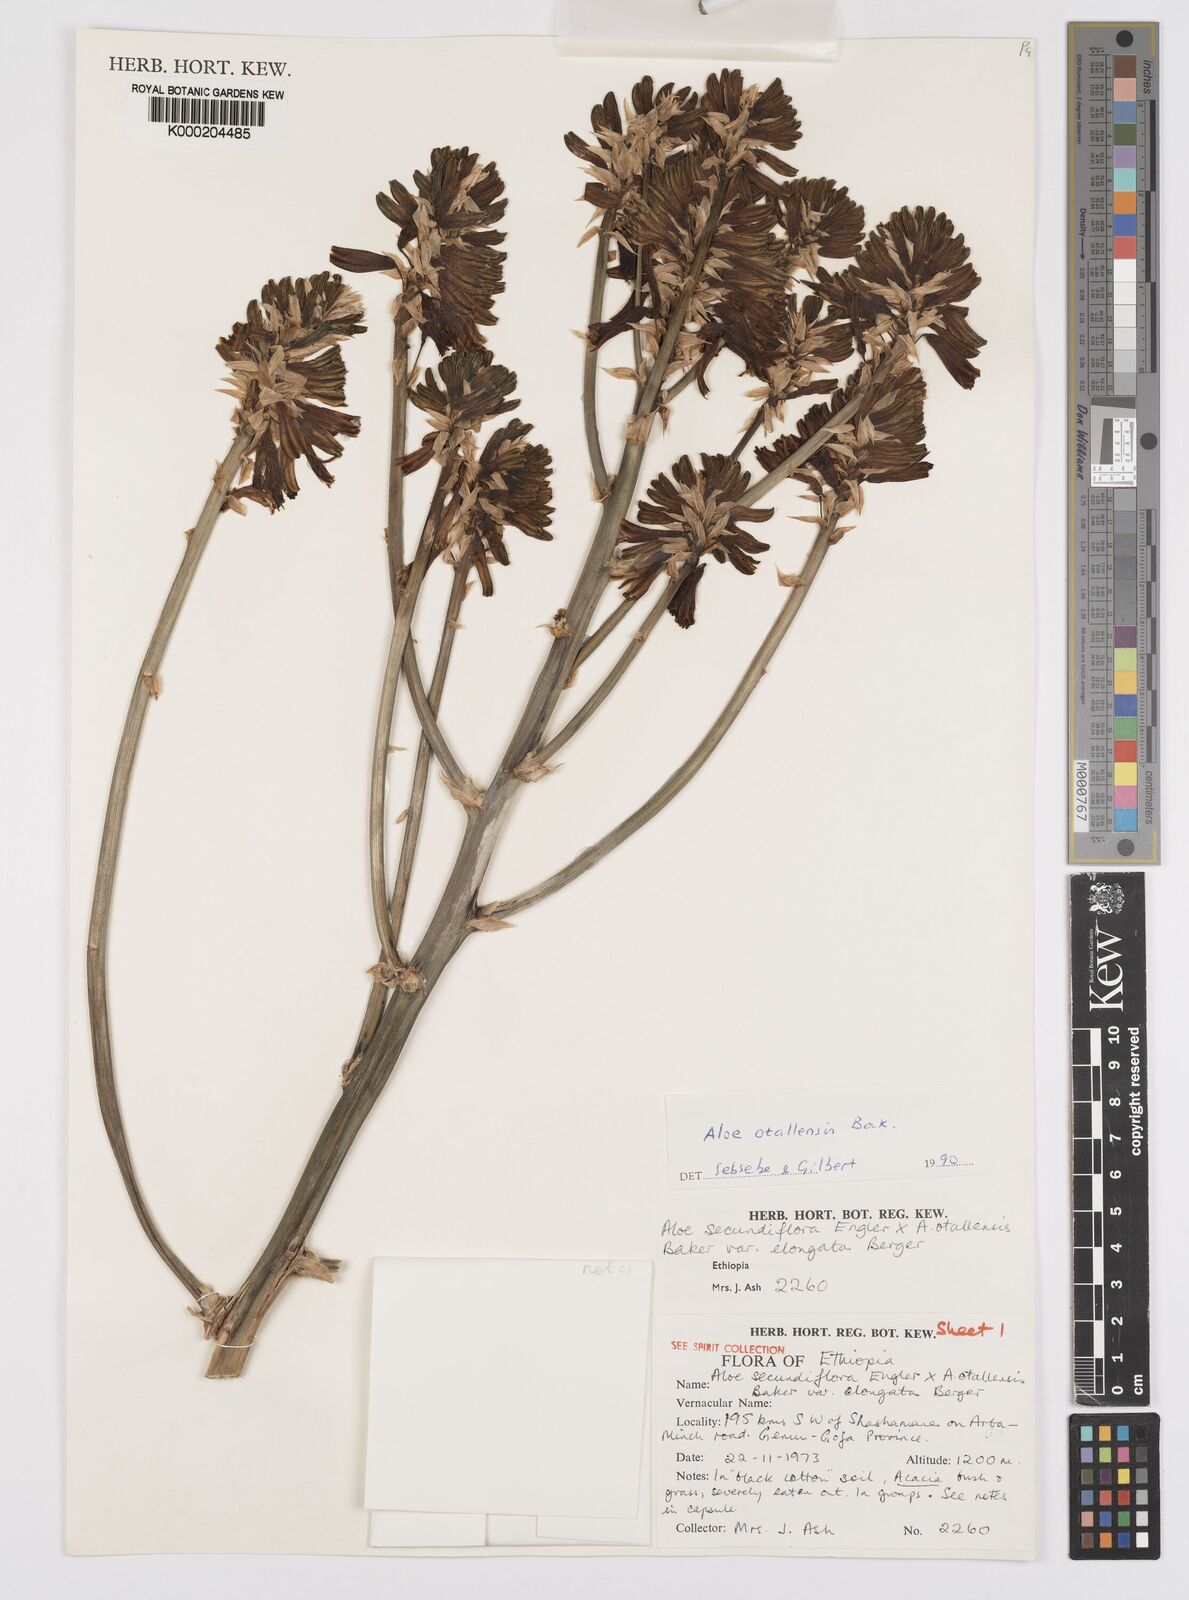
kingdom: Plantae
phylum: Tracheophyta
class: Liliopsida
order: Asparagales
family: Asphodelaceae
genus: Aloe
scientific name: Aloe otallensis
